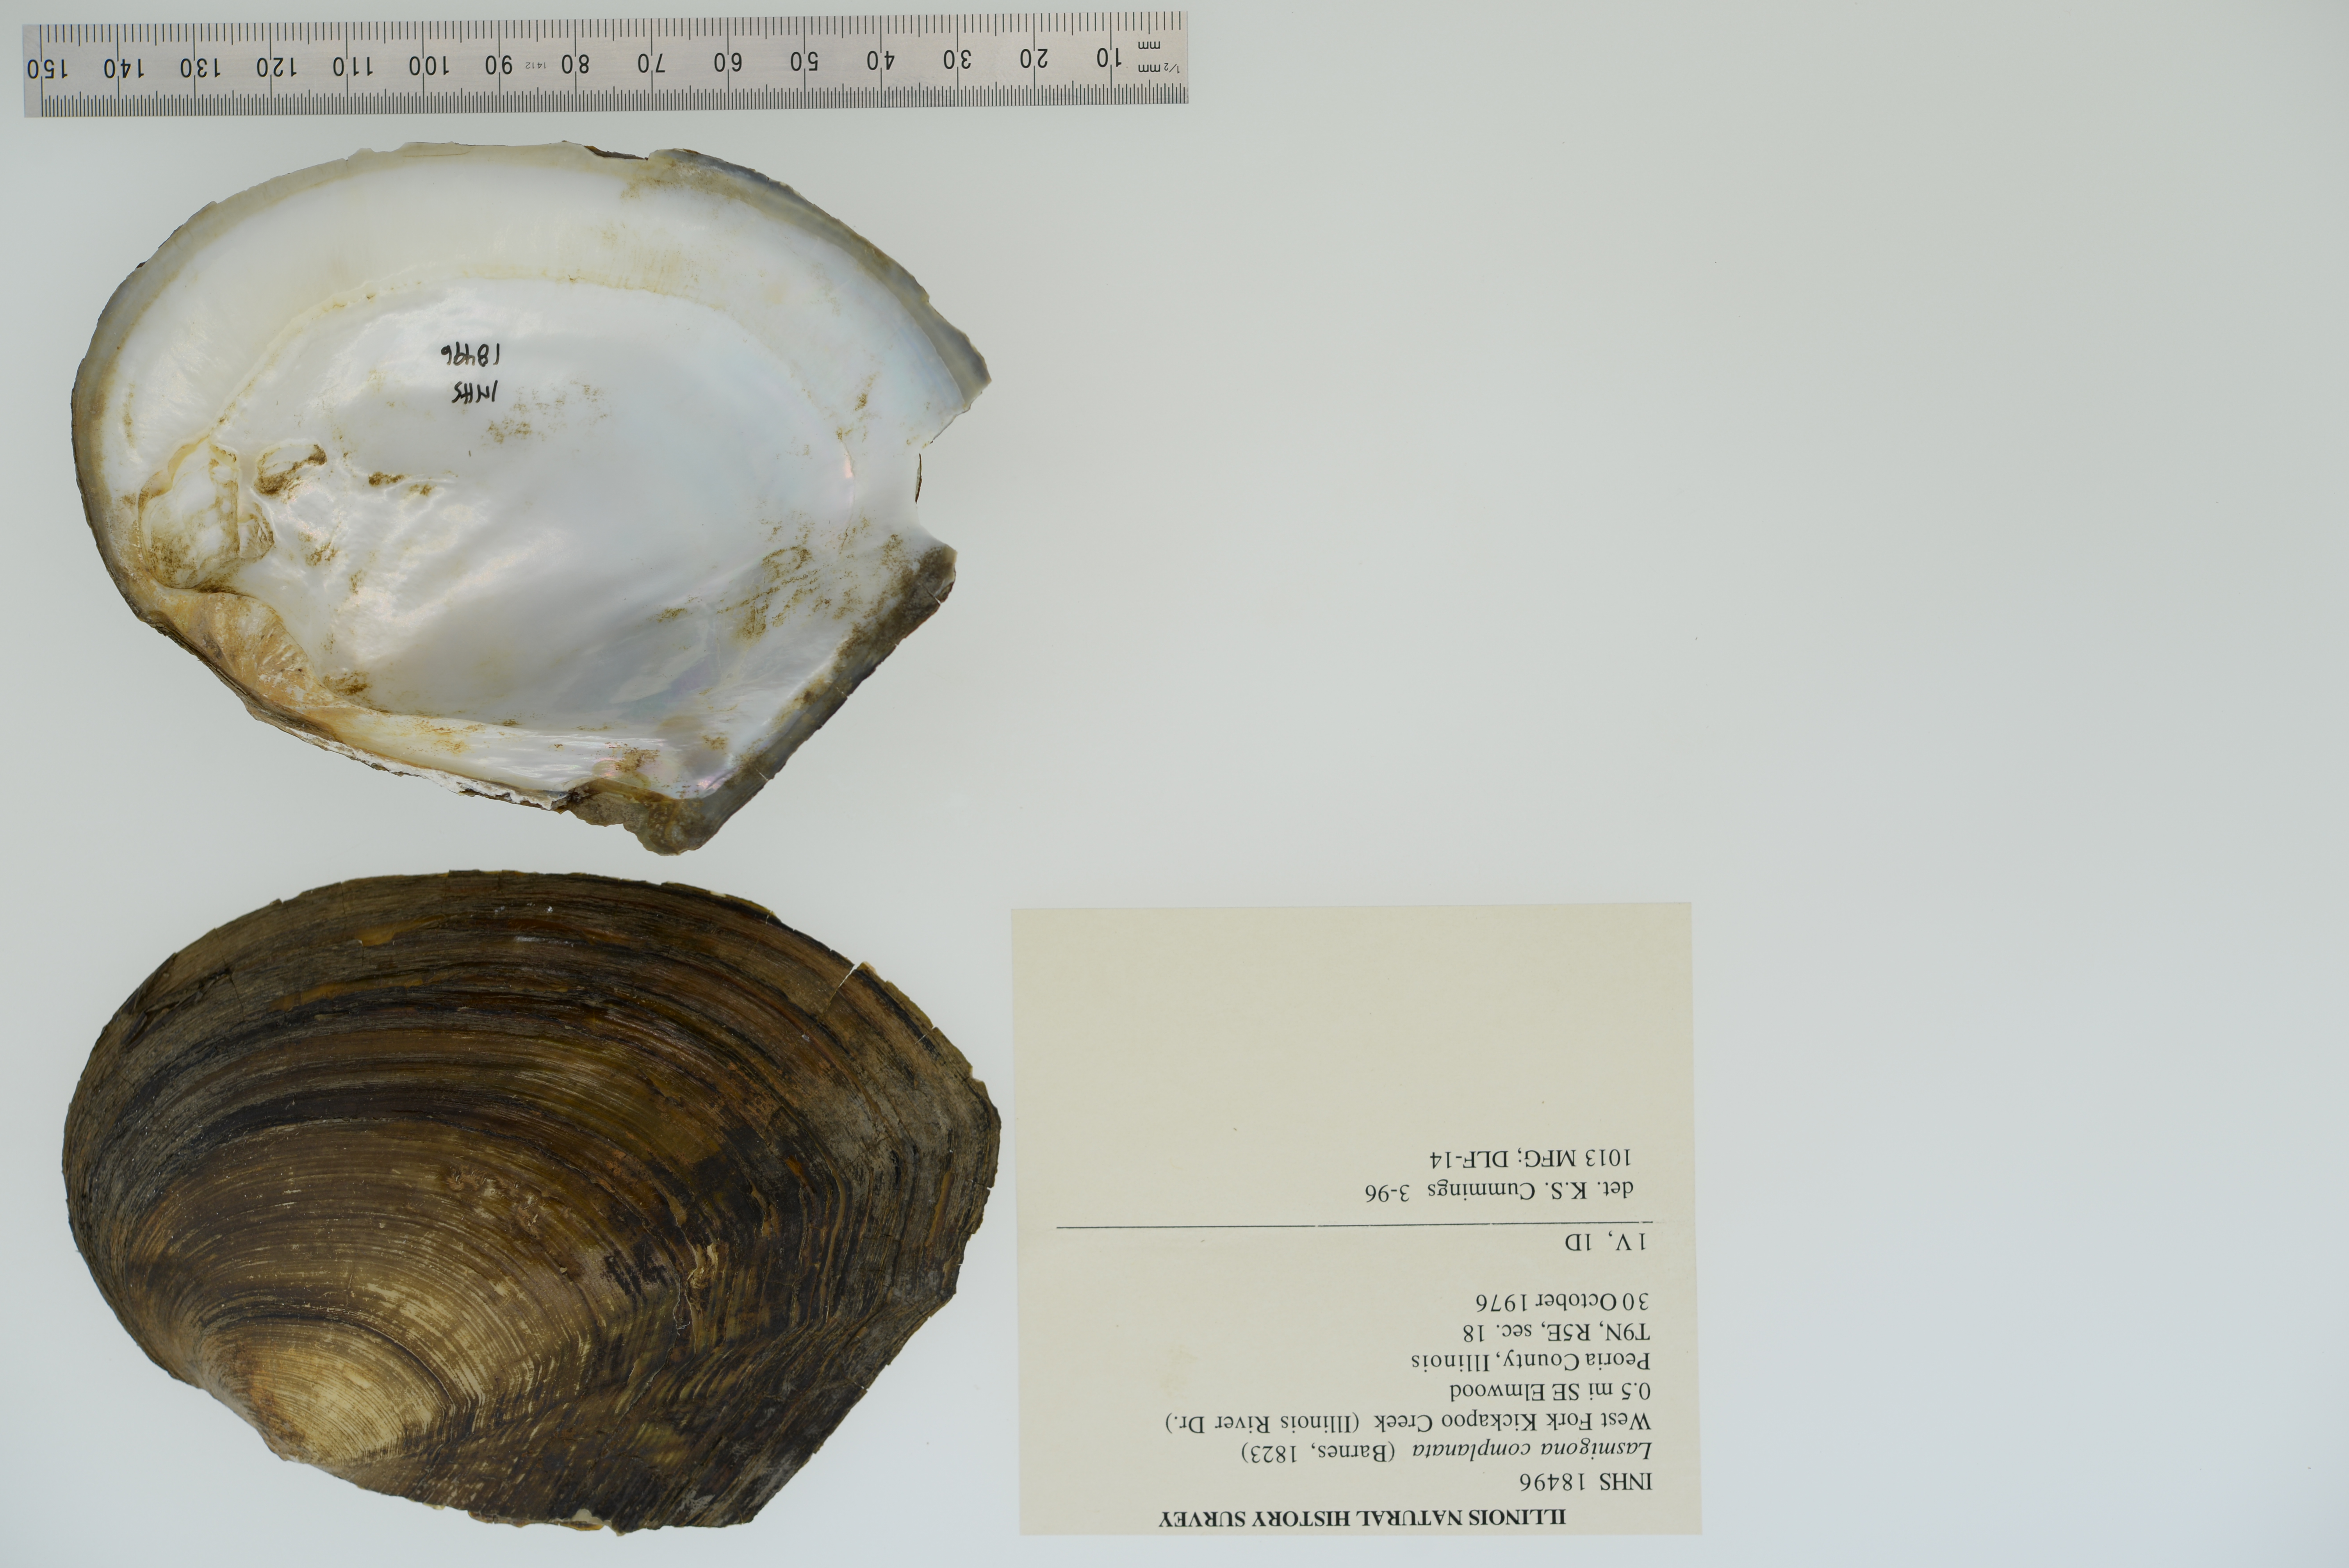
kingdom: Animalia
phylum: Mollusca
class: Bivalvia
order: Unionida
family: Unionidae
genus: Lasmigona
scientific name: Lasmigona complanata
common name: White heelsplitter
